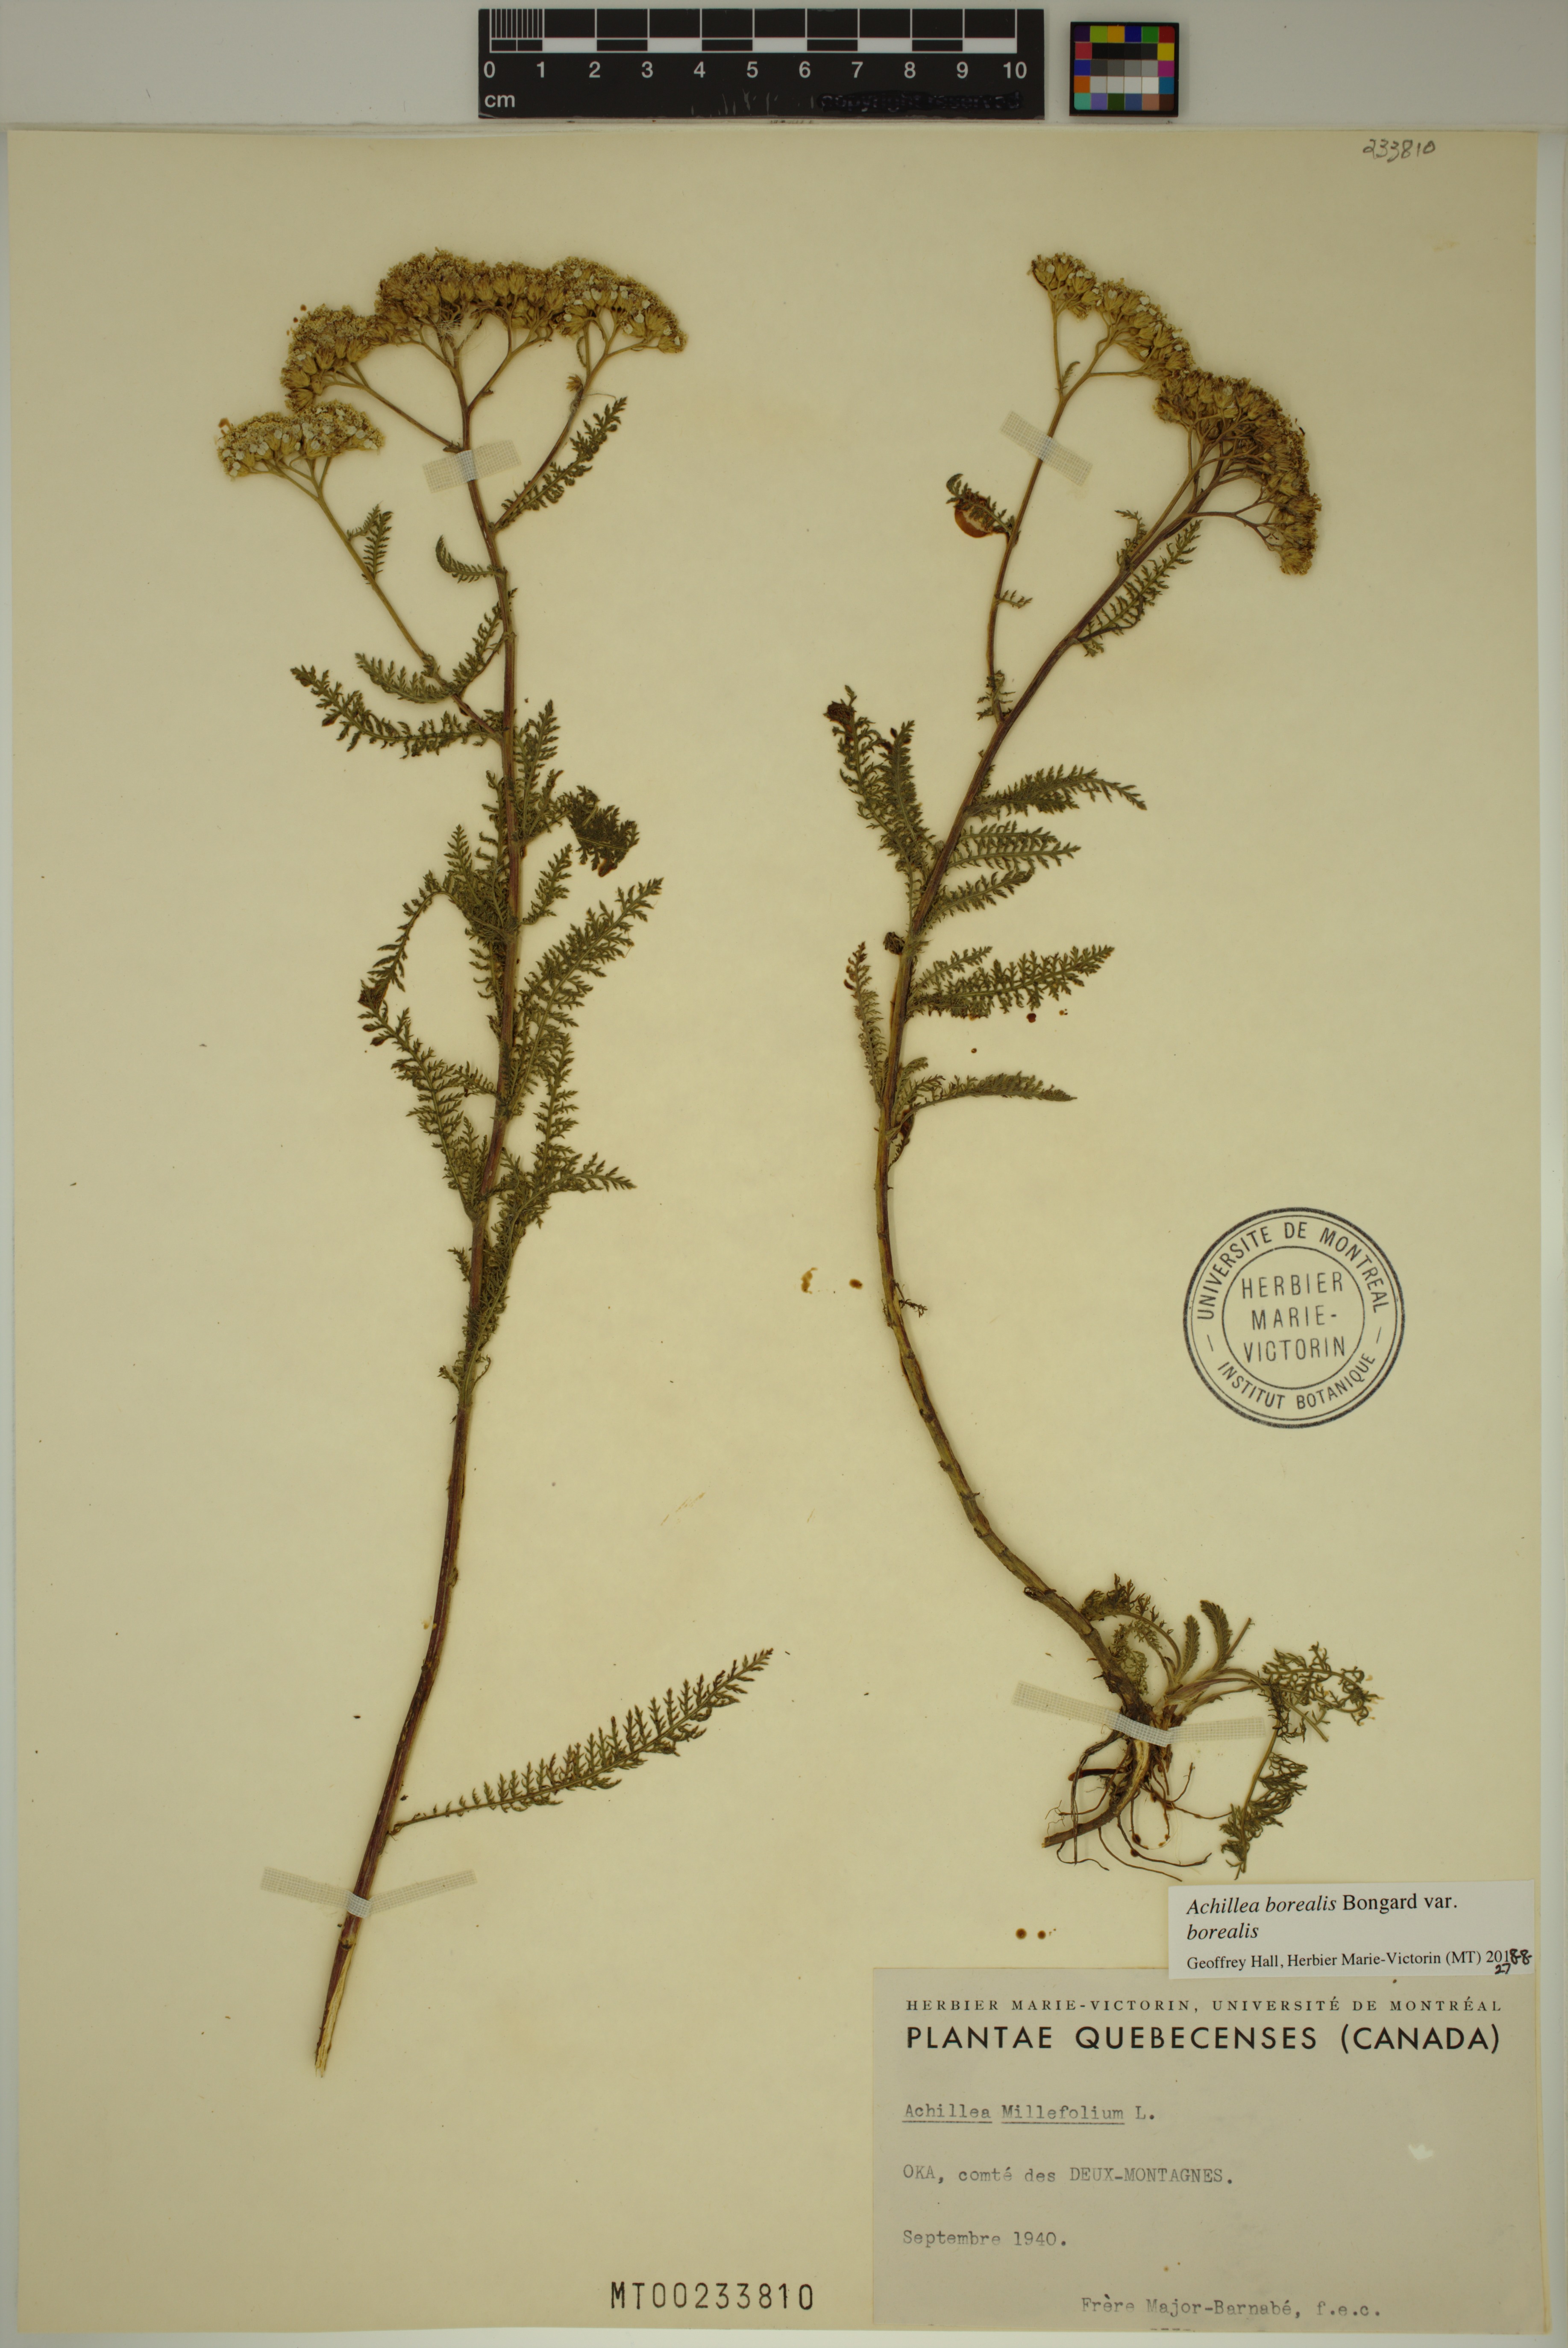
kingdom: Plantae
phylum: Tracheophyta
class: Magnoliopsida
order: Asterales
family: Asteraceae
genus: Achillea
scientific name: Achillea millefolium
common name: Yarrow
